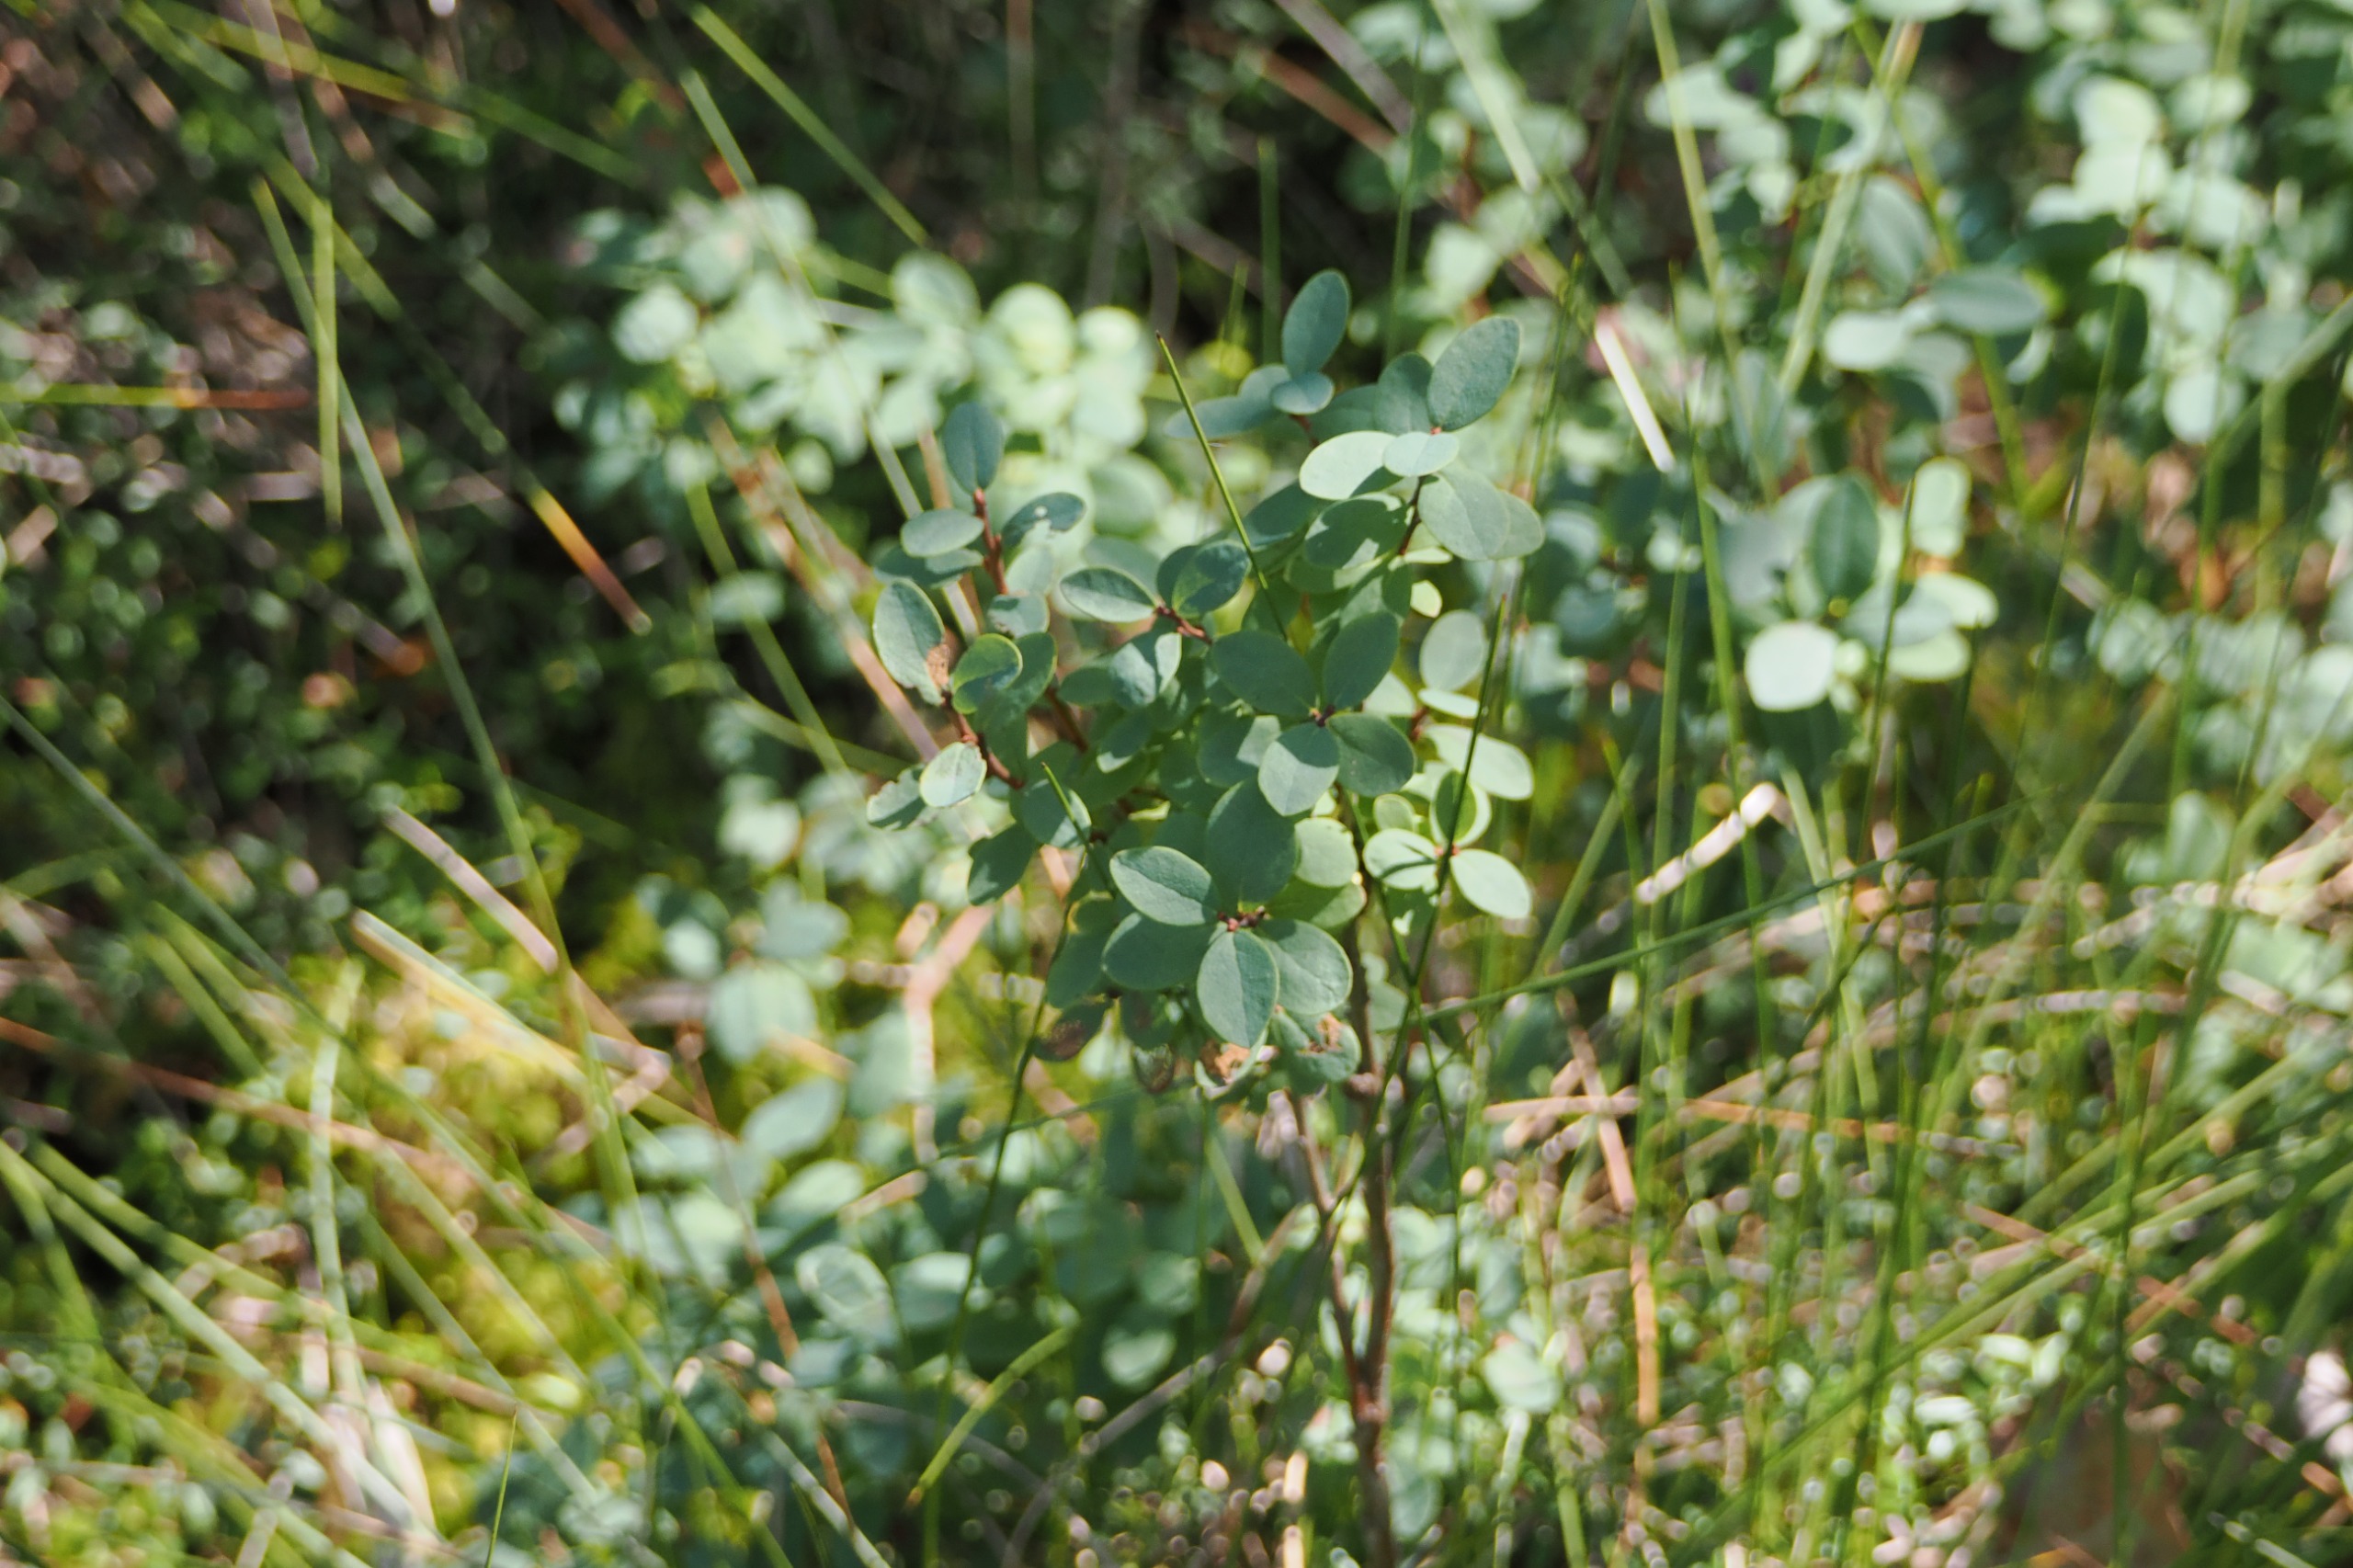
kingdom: Plantae
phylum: Tracheophyta
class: Magnoliopsida
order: Ericales
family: Ericaceae
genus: Vaccinium
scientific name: Vaccinium uliginosum
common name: Mose-bølle
